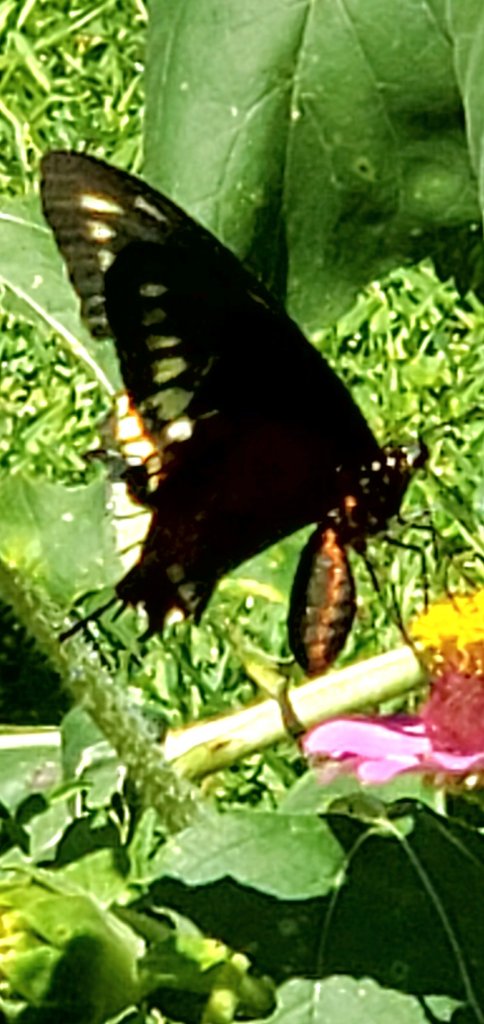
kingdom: Animalia
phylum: Arthropoda
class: Insecta
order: Lepidoptera
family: Papilionidae
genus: Battus
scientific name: Battus polydamas
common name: Polydamas Swallowtail
